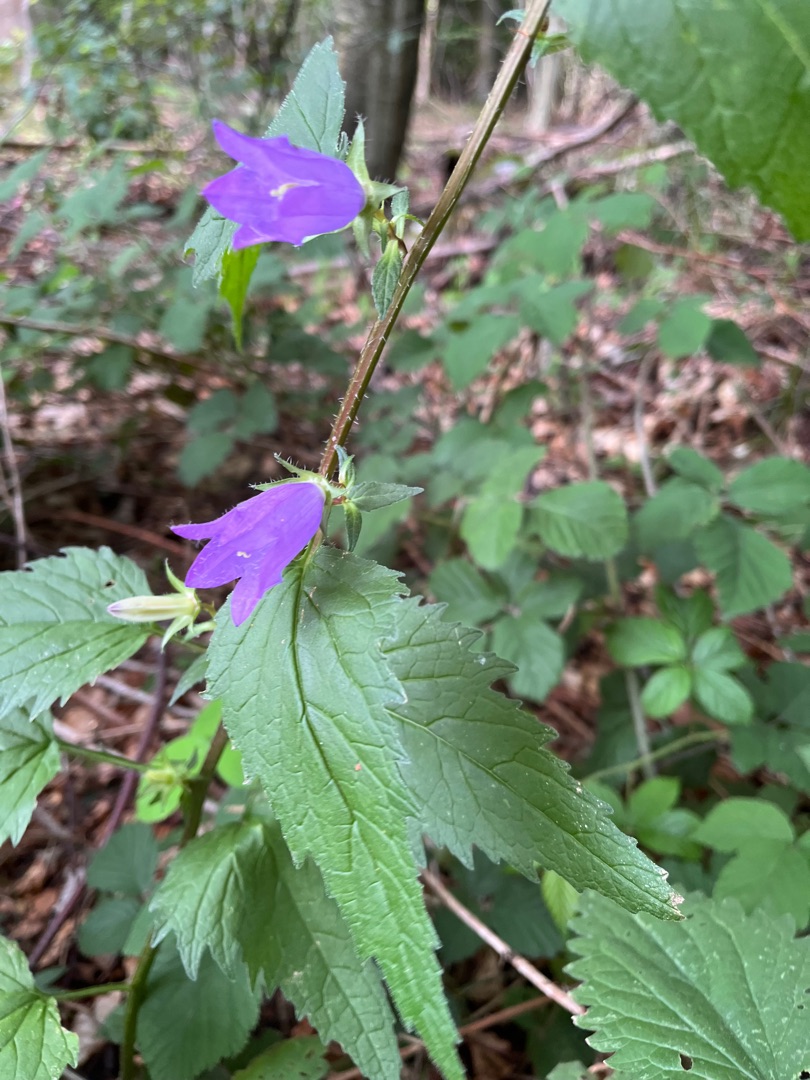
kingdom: Plantae
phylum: Tracheophyta
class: Magnoliopsida
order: Asterales
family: Campanulaceae
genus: Campanula
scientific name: Campanula trachelium
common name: Nælde-klokke
